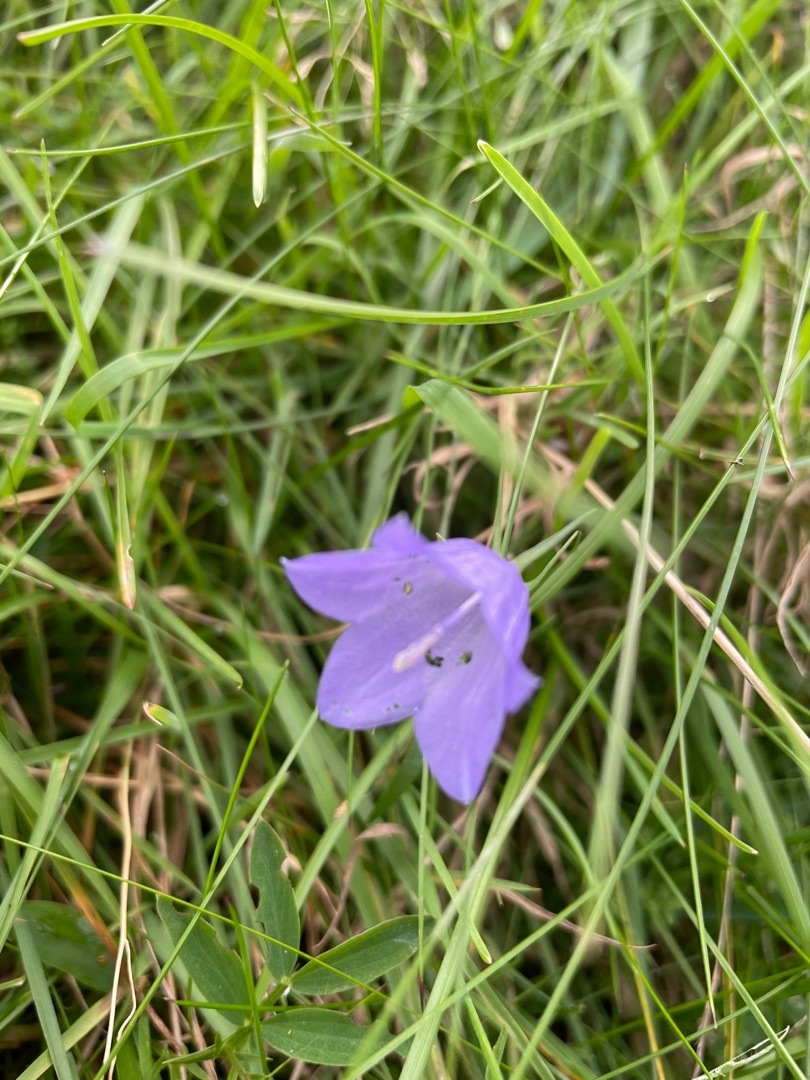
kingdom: Plantae
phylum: Tracheophyta
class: Magnoliopsida
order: Asterales
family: Campanulaceae
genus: Campanula
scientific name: Campanula rotundifolia
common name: Liden klokke
